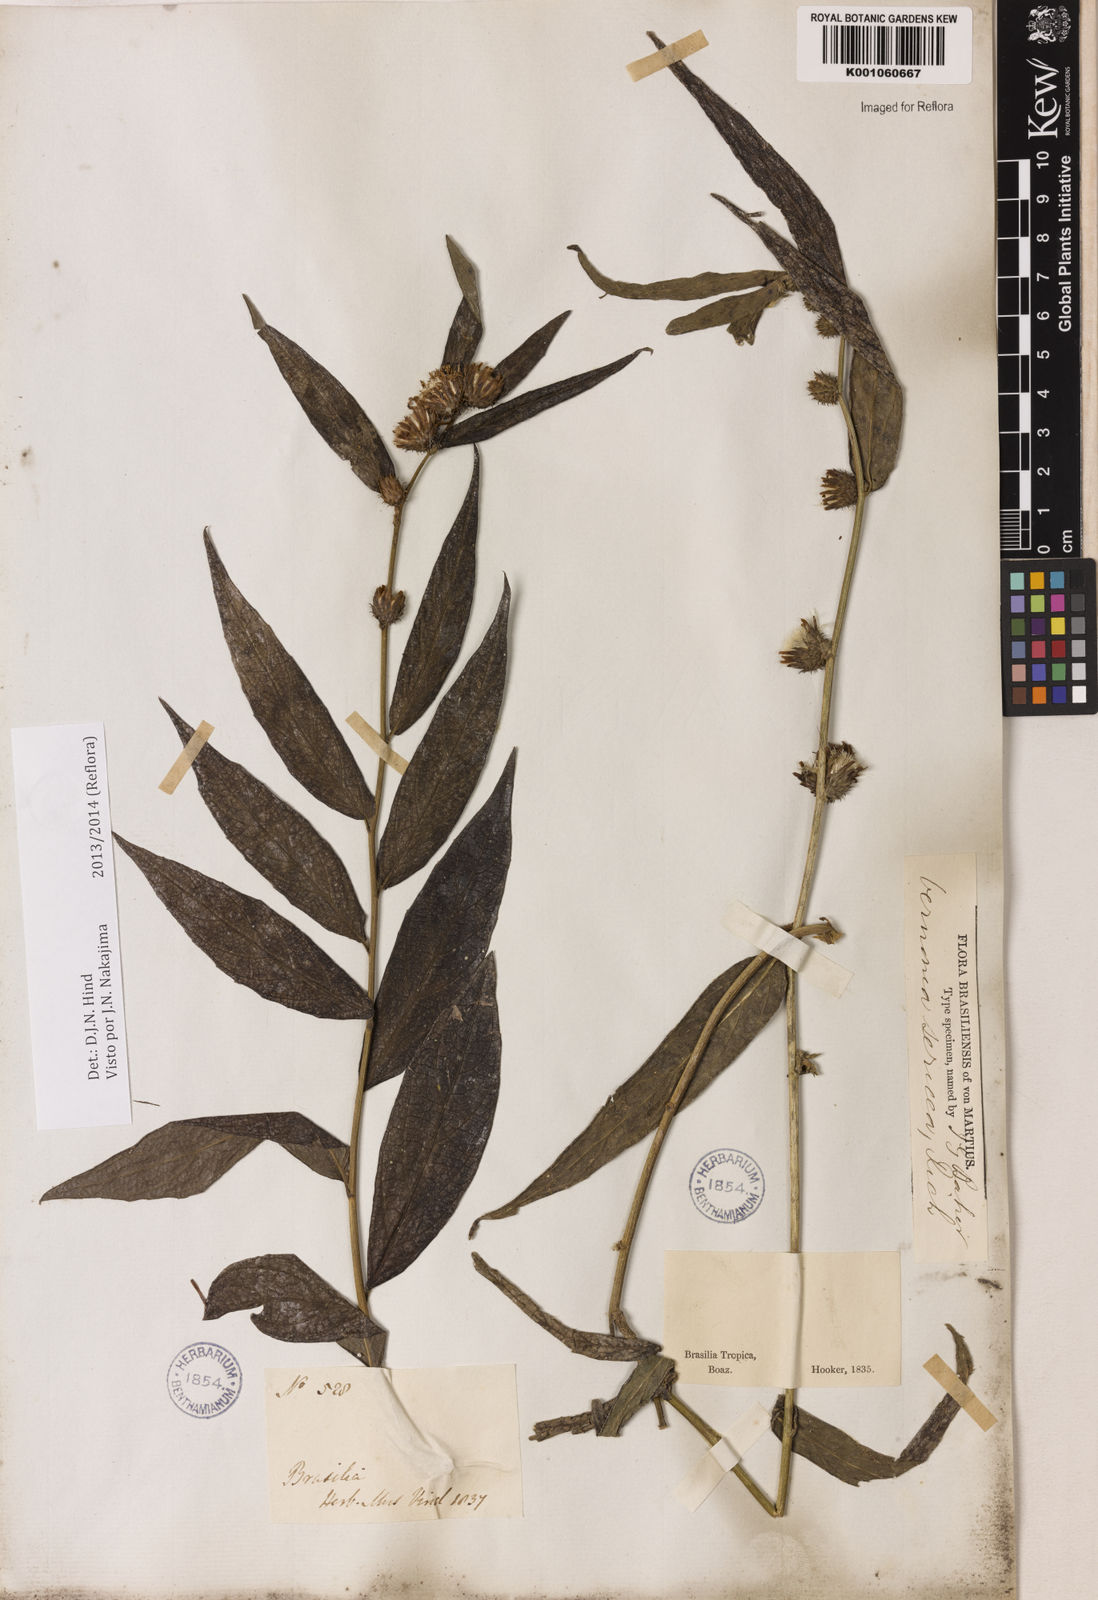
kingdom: Plantae
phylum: Tracheophyta
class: Magnoliopsida
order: Asterales
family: Asteraceae
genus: Lepidaploa
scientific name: Lepidaploa sericea
